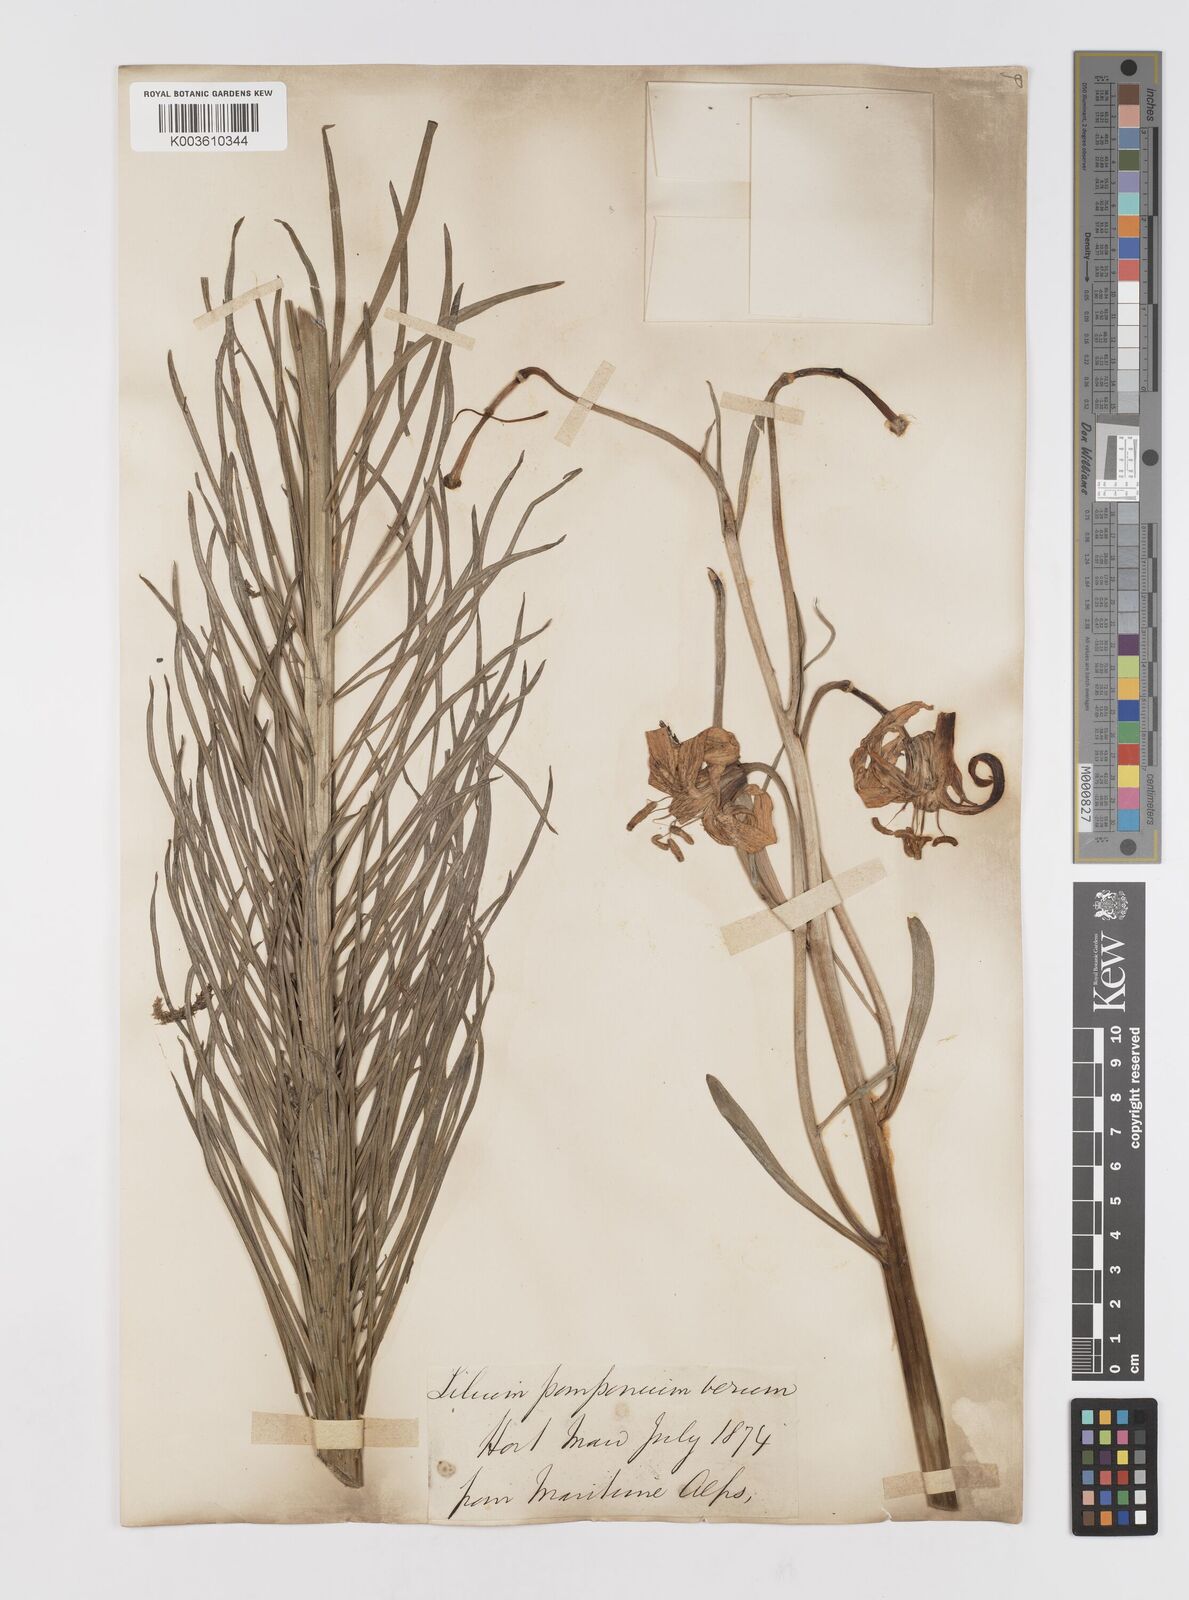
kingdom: Plantae
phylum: Tracheophyta
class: Liliopsida
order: Liliales
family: Liliaceae
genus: Lilium
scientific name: Lilium
